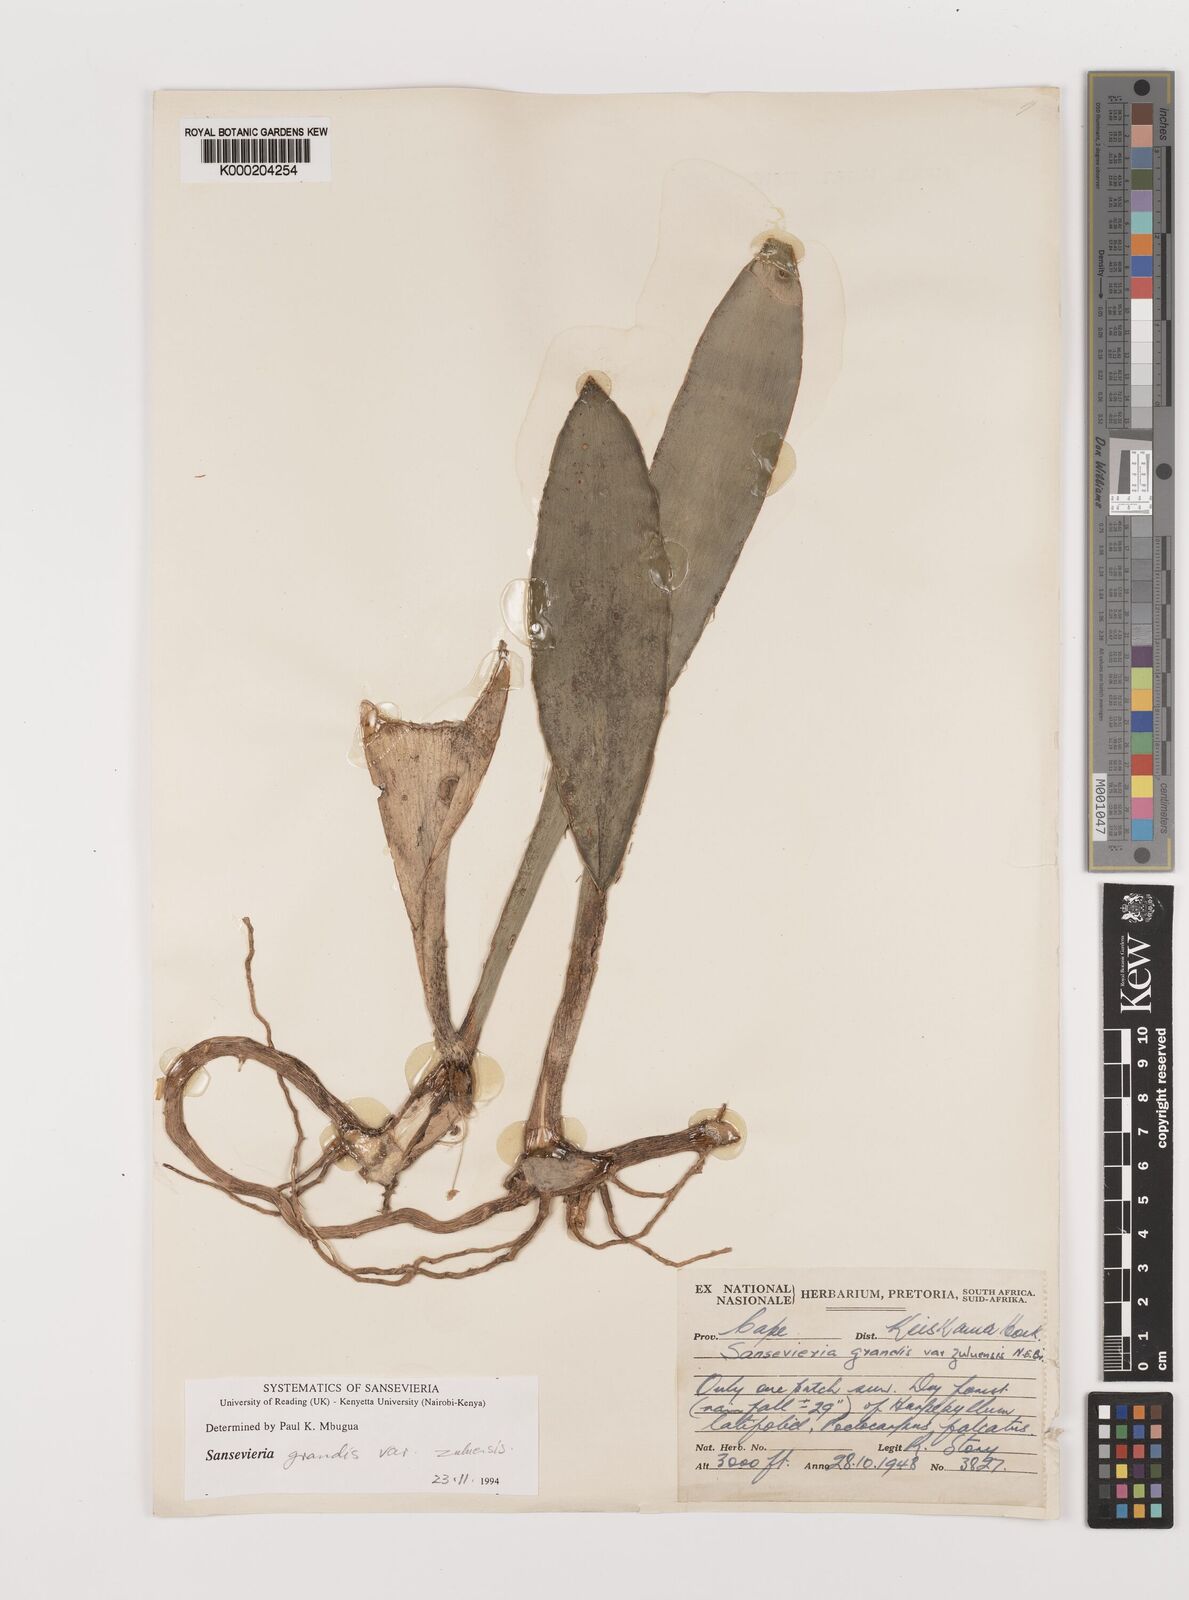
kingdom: Plantae
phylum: Tracheophyta
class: Liliopsida
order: Asparagales
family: Asparagaceae
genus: Dracaena
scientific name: Dracaena hyacinthoides
